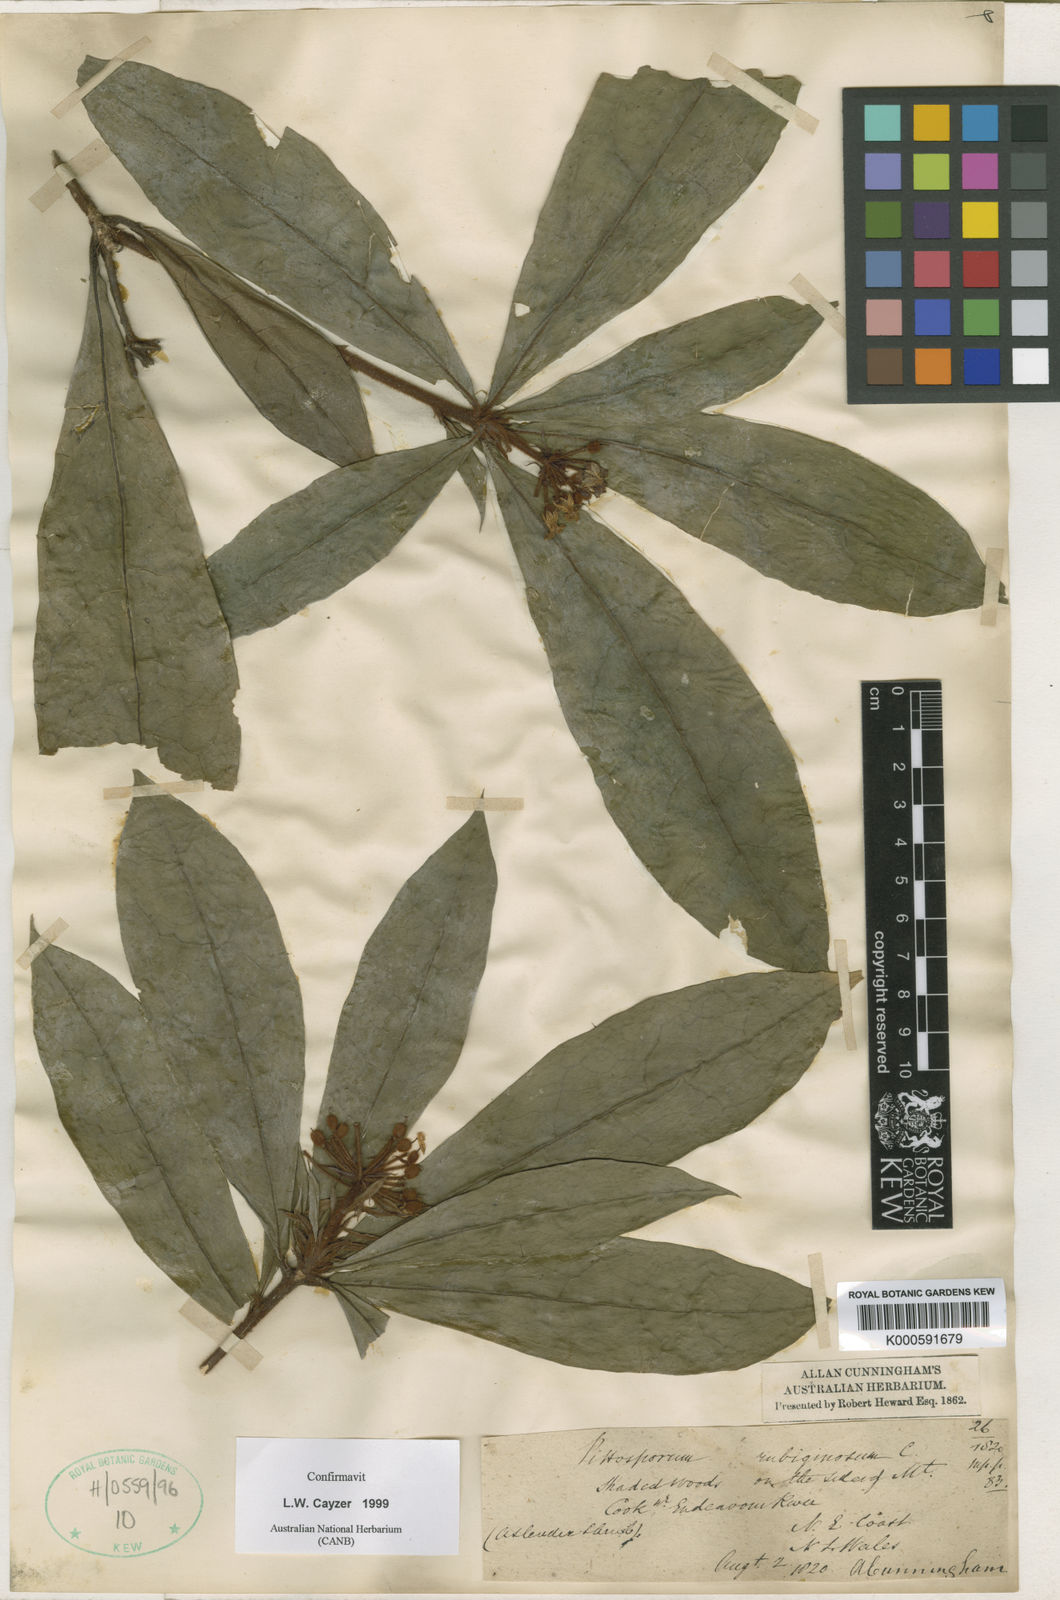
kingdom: Plantae
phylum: Tracheophyta
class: Magnoliopsida
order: Apiales
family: Pittosporaceae
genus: Pittosporum
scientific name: Pittosporum rubiginosum
